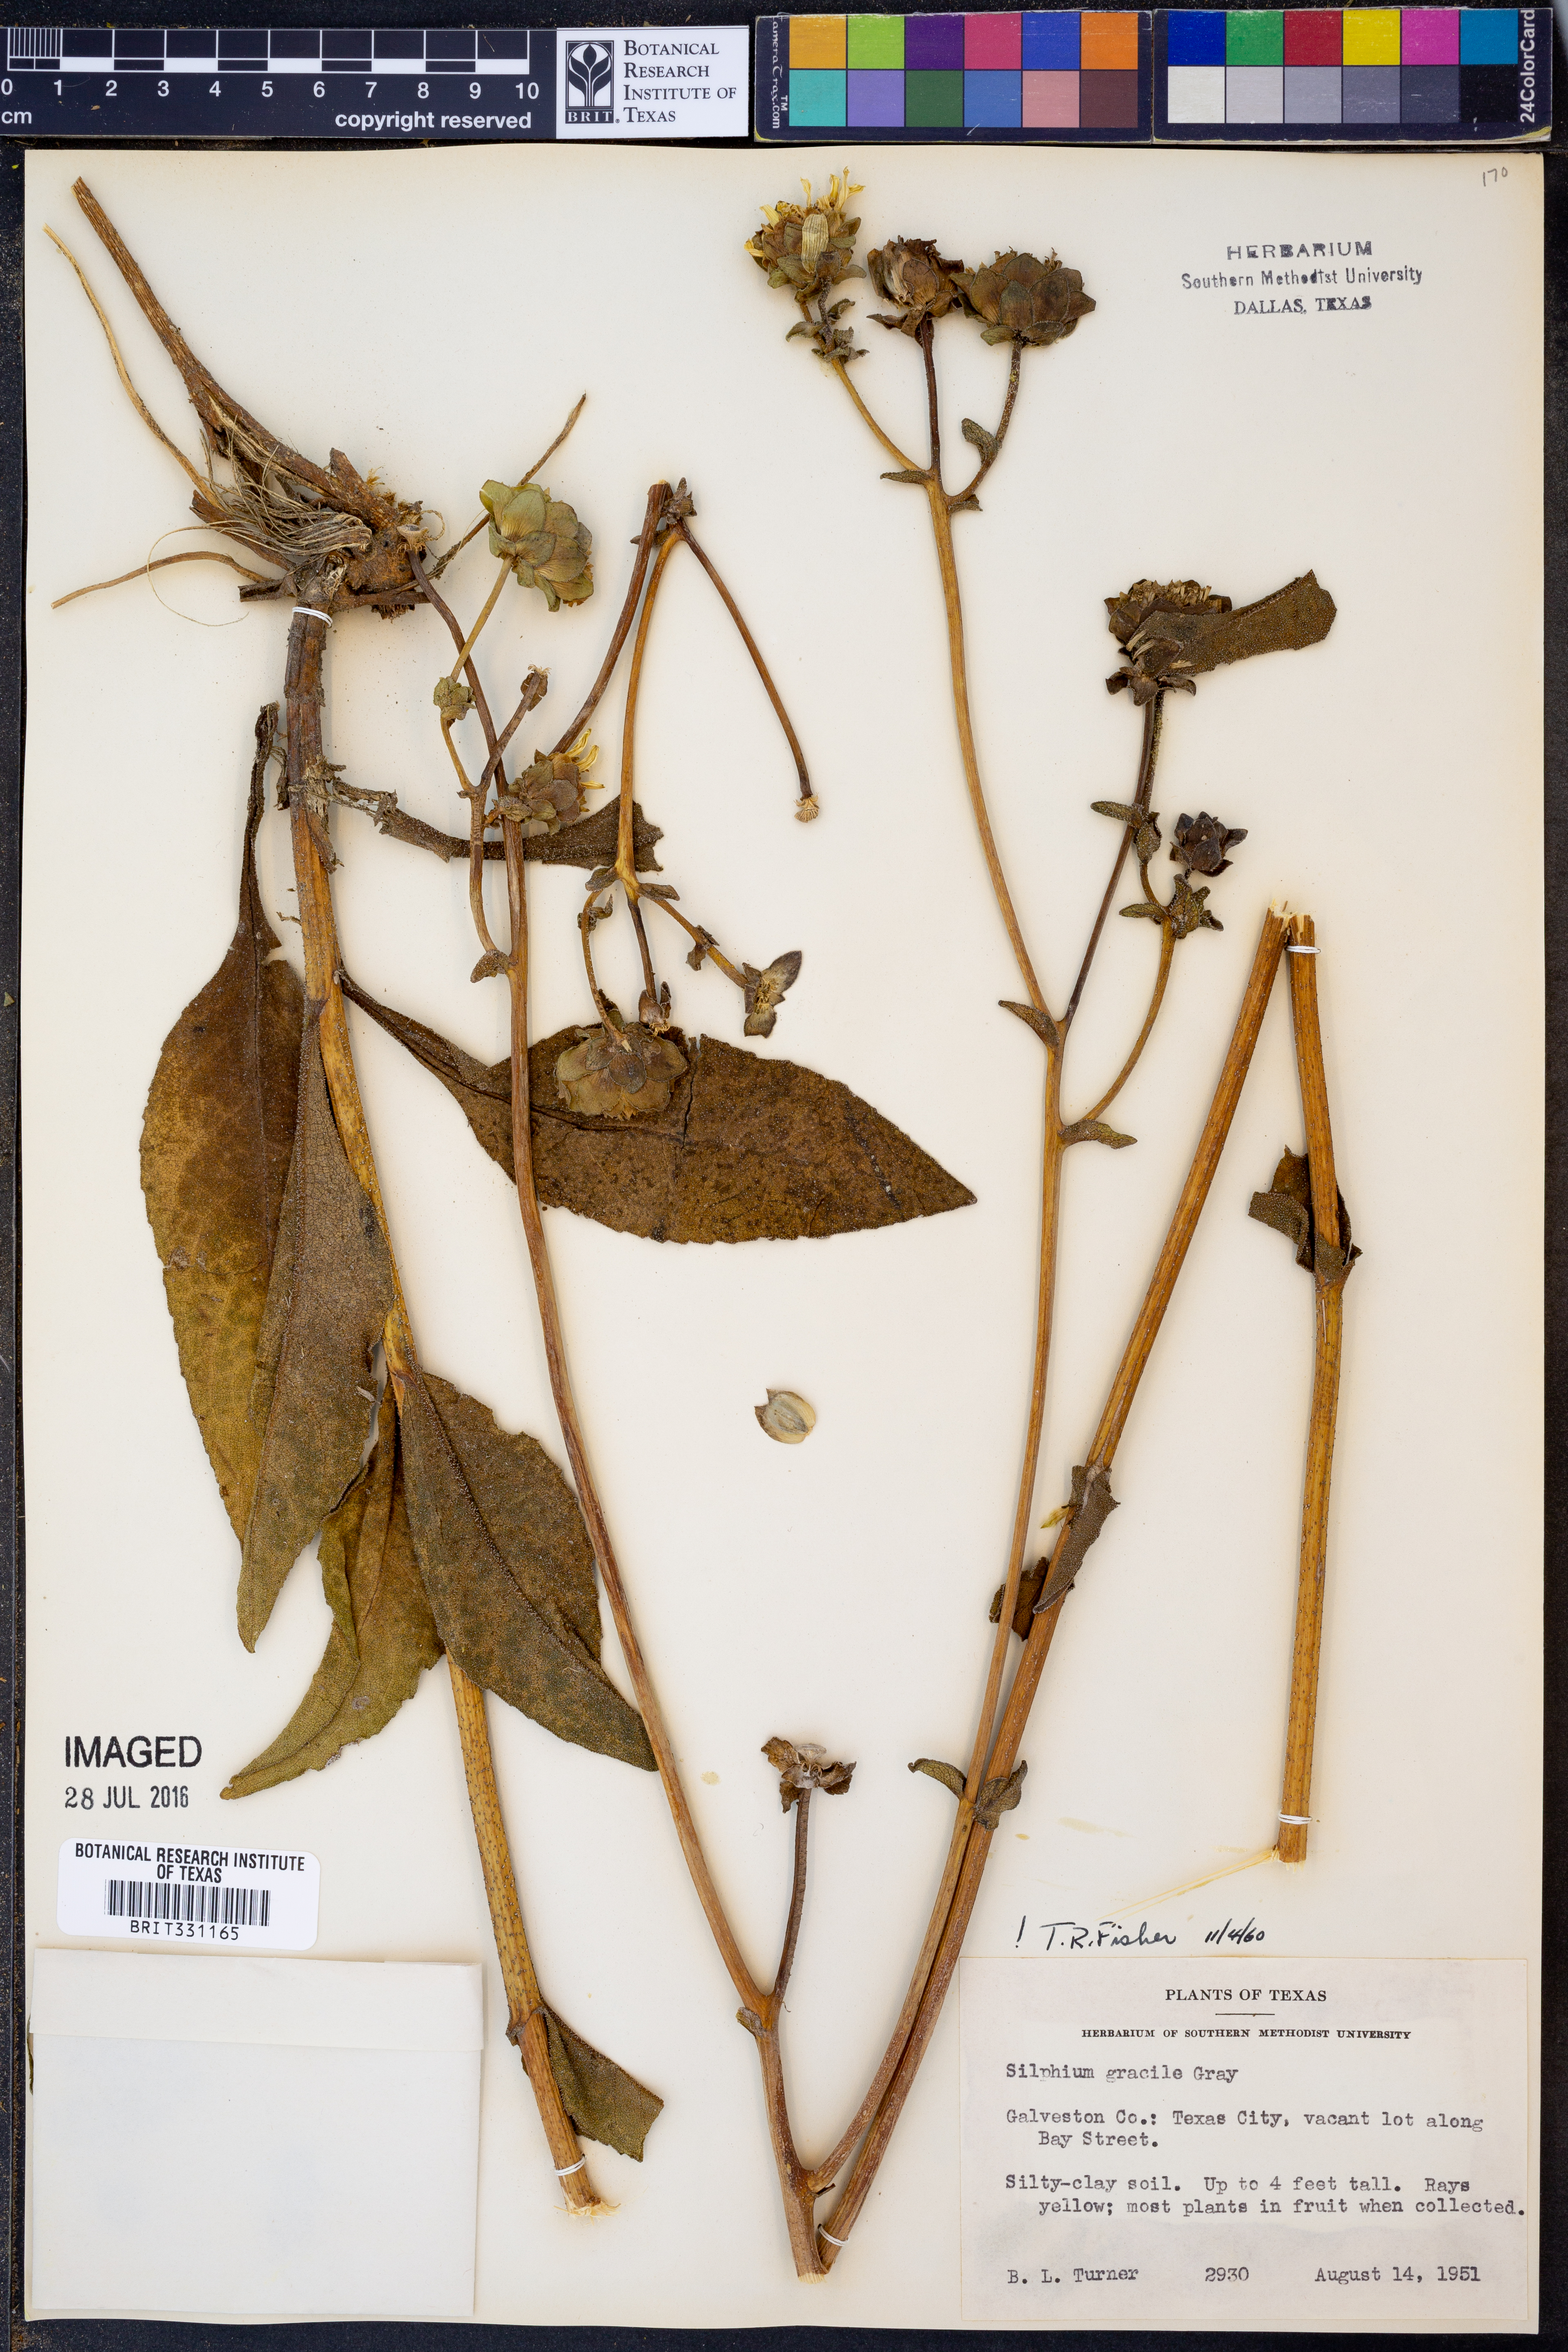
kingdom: Plantae
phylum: Tracheophyta
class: Magnoliopsida
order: Asterales
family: Asteraceae
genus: Silphium
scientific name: Silphium radula
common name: Roughleaf rosinweed
